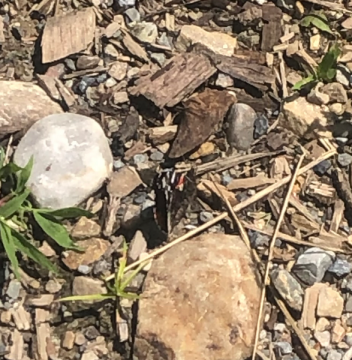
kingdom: Animalia
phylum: Arthropoda
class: Insecta
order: Lepidoptera
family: Nymphalidae
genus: Vanessa
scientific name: Vanessa atalanta
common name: Red Admiral
